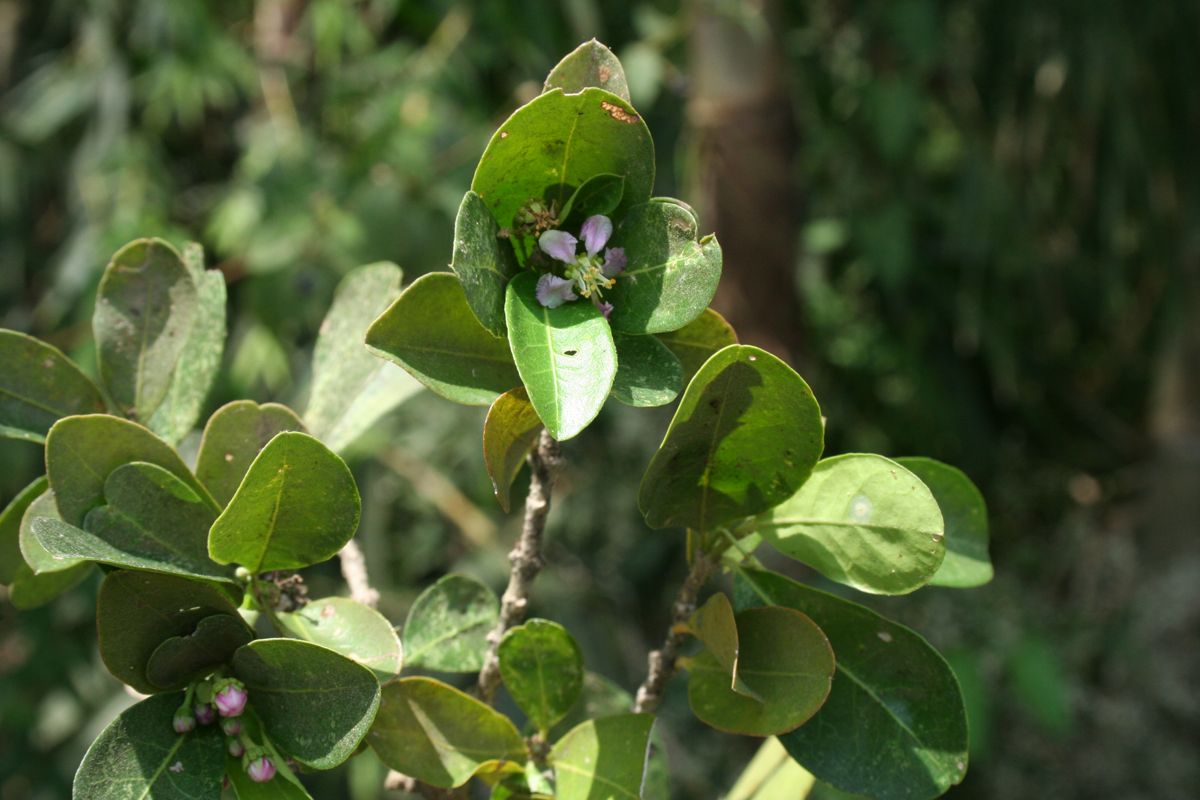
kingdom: Plantae
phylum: Tracheophyta
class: Magnoliopsida
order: Malpighiales
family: Malpighiaceae
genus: Malpighia
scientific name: Malpighia emarginata
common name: Barbados cherry
